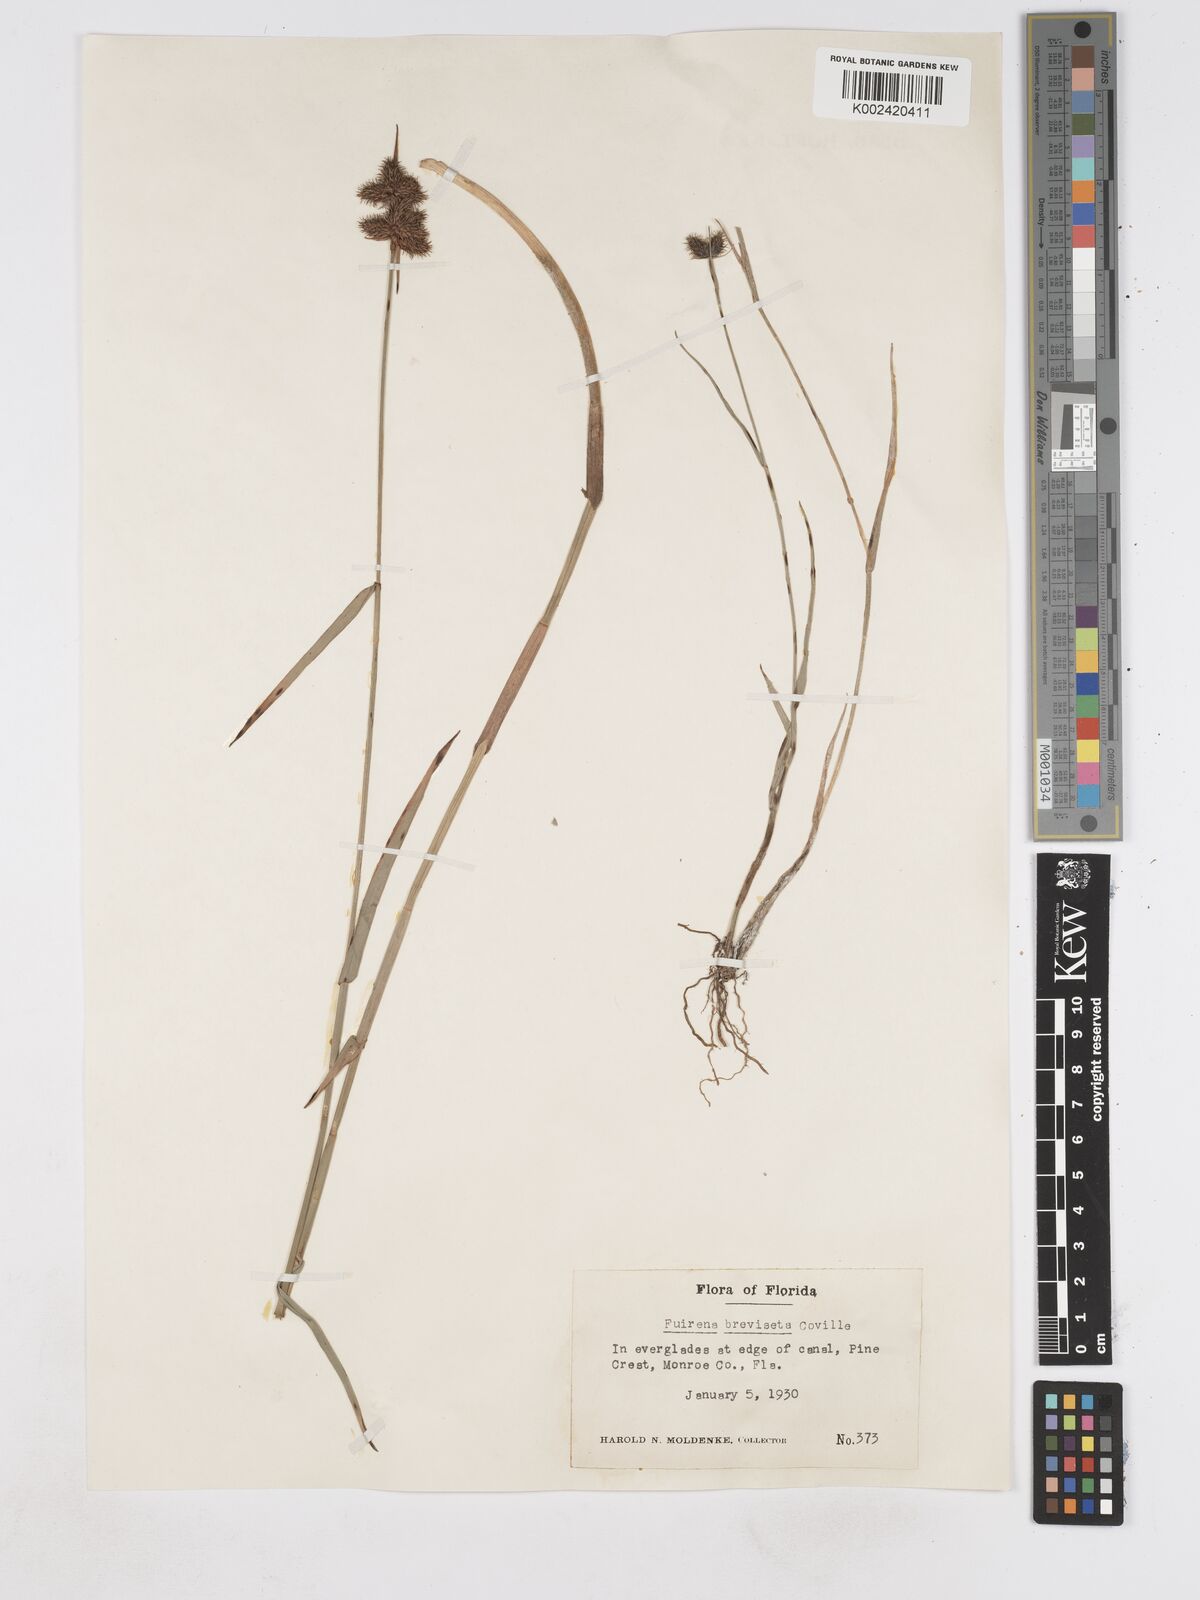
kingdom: Plantae
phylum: Tracheophyta
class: Liliopsida
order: Poales
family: Cyperaceae
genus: Fuirena
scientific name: Fuirena breviseta
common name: Saltmarsh umbrella sedge
